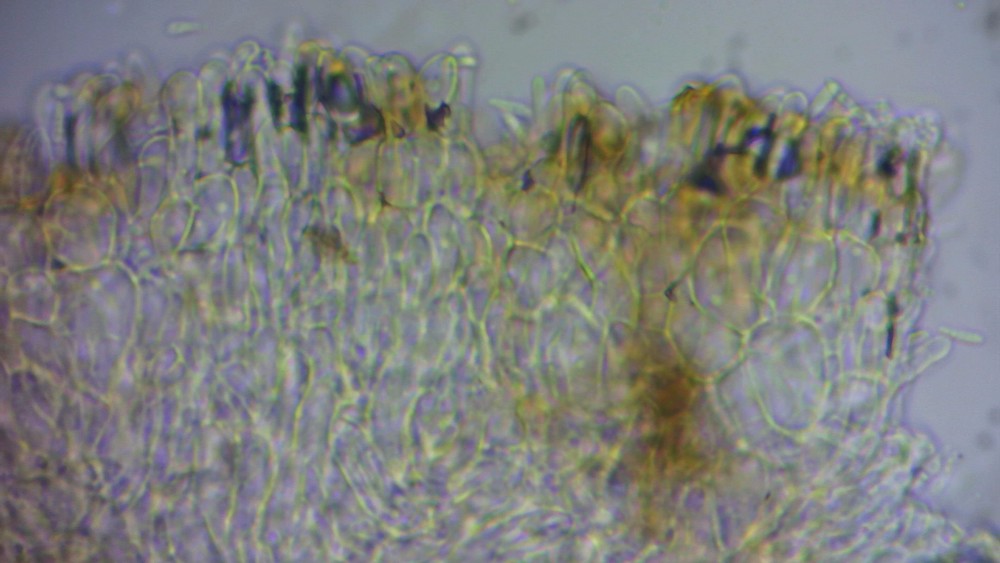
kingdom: Fungi
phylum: Ascomycota
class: Leotiomycetes
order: Helotiales
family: Mollisiaceae
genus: Mollisia
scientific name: Mollisia chionea
